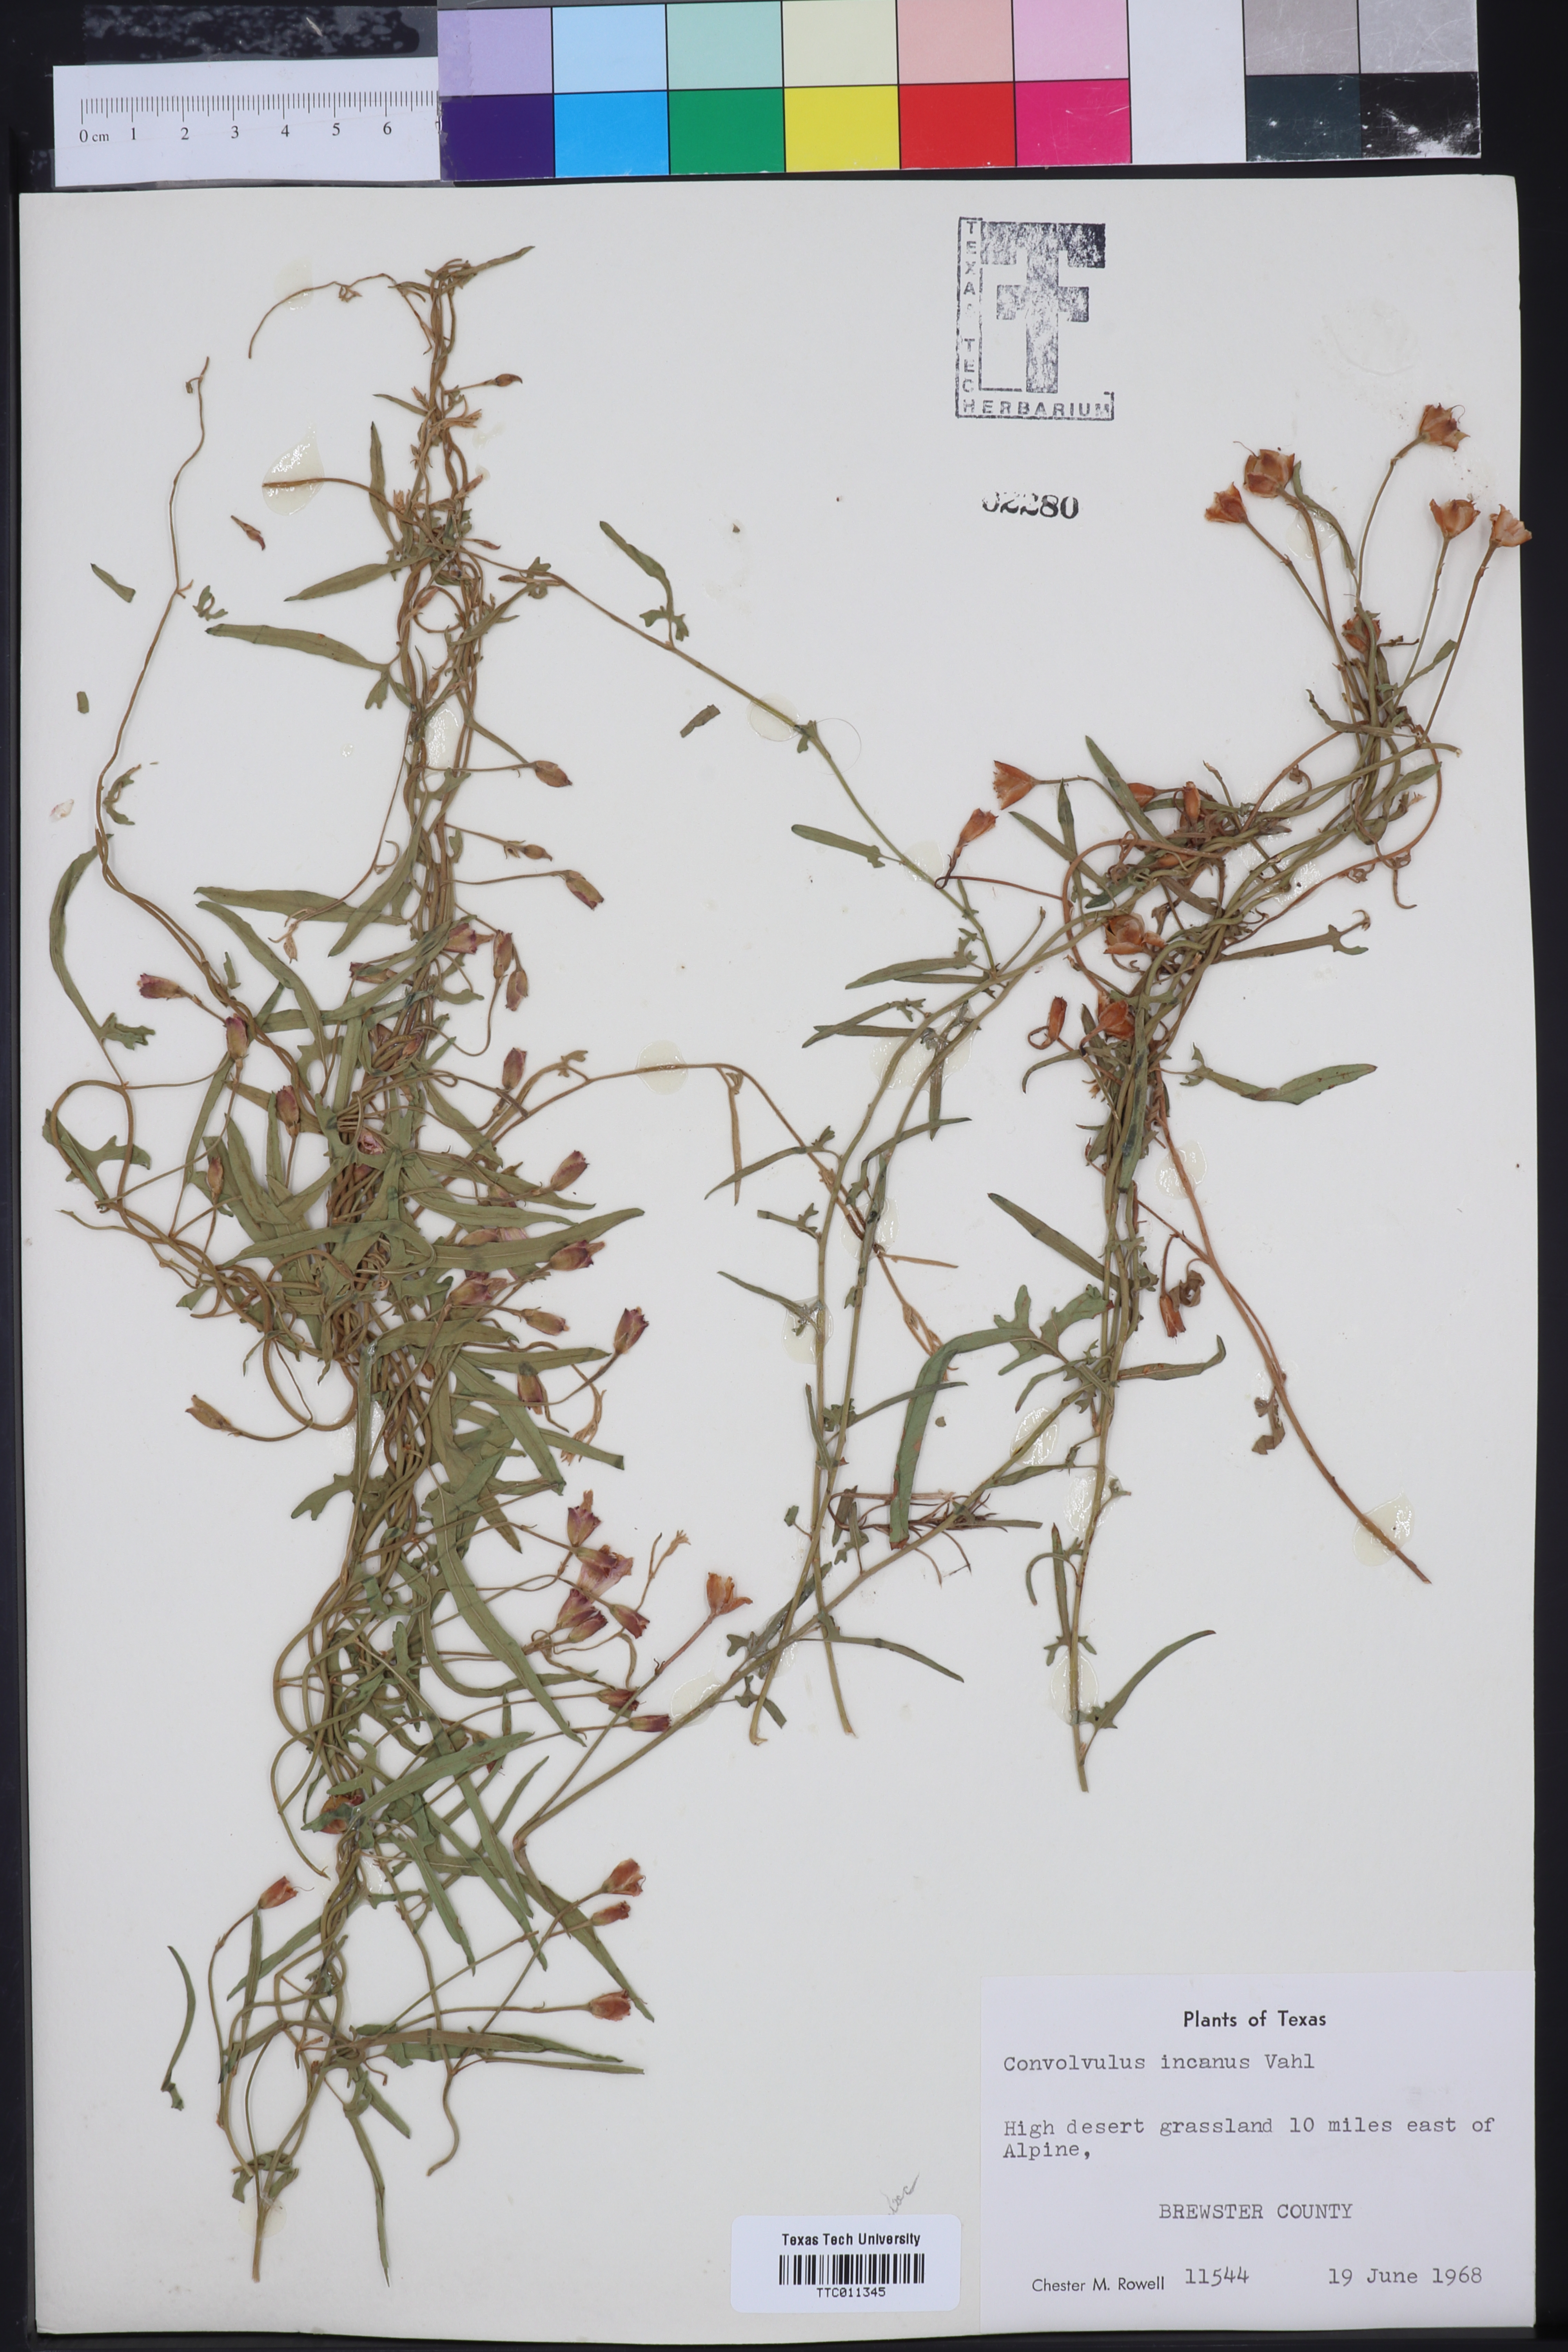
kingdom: Plantae
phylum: Tracheophyta
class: Magnoliopsida
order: Solanales
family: Convolvulaceae
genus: Convolvulus
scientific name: Convolvulus hermanniae
